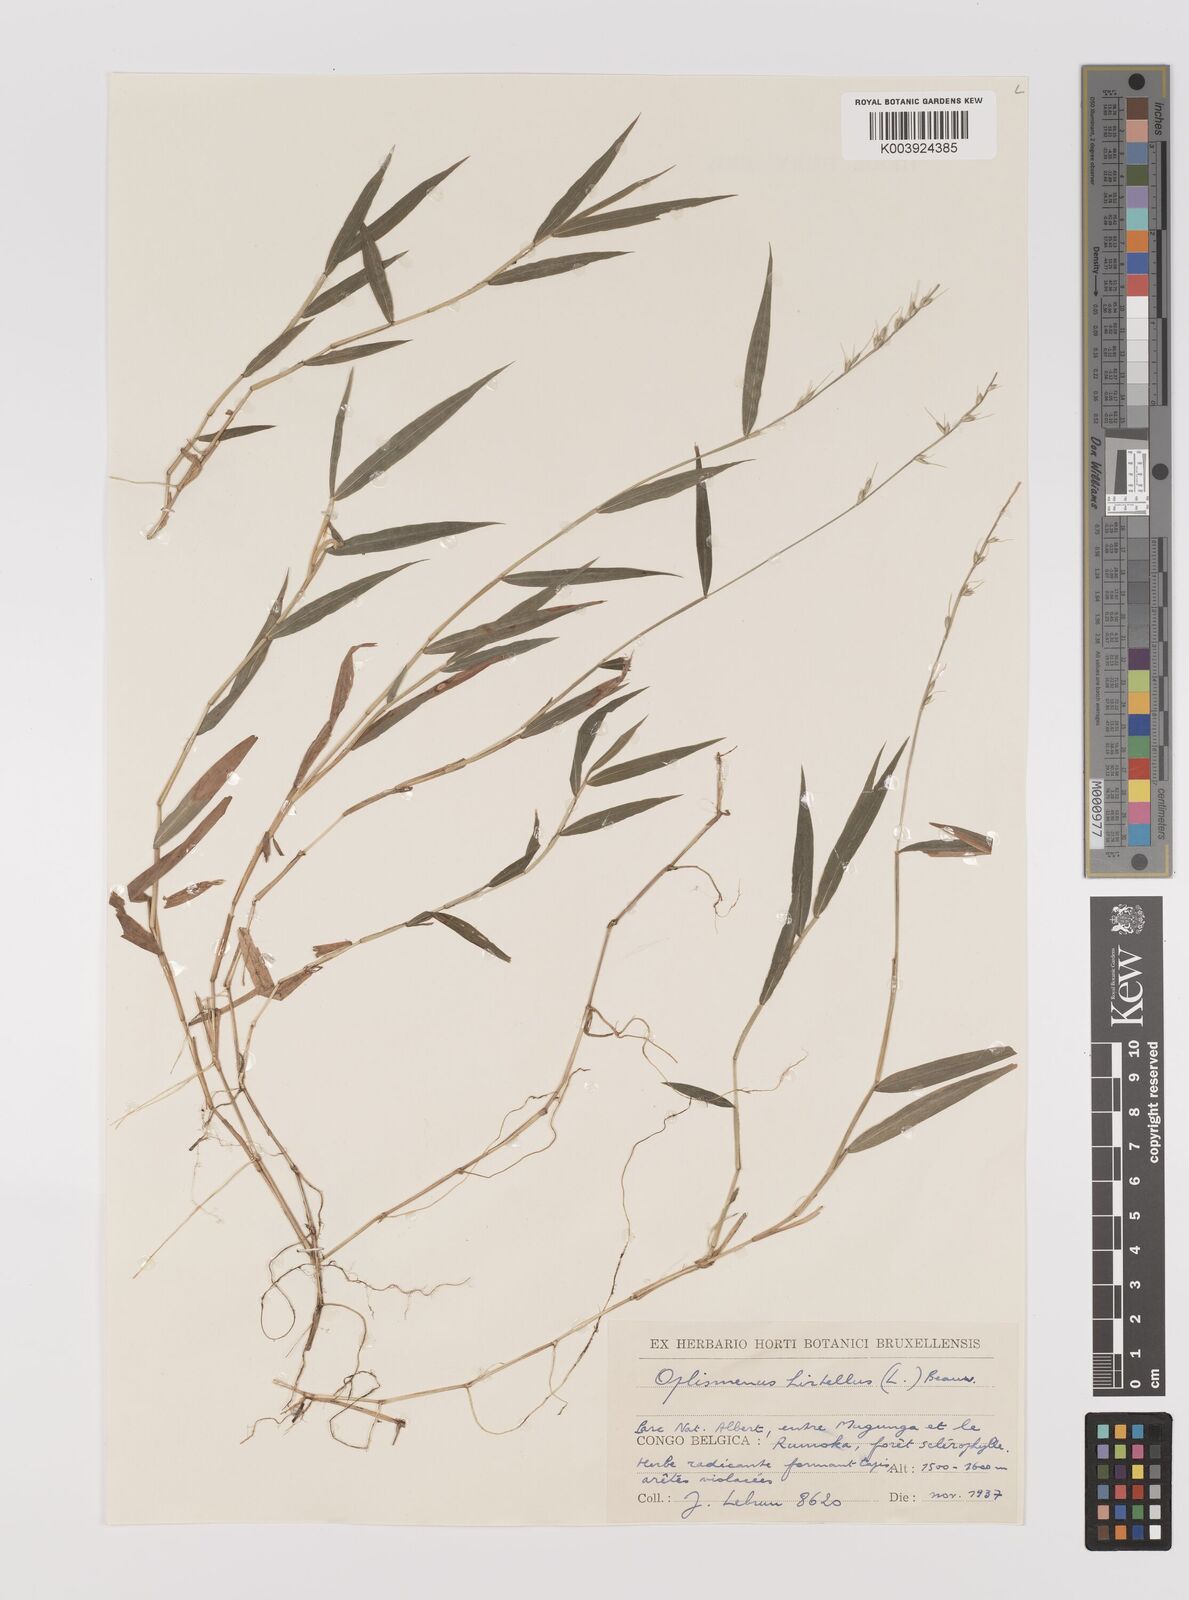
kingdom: Plantae
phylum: Tracheophyta
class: Liliopsida
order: Poales
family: Poaceae
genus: Oplismenus
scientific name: Oplismenus undulatifolius
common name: Wavyleaf basketgrass
